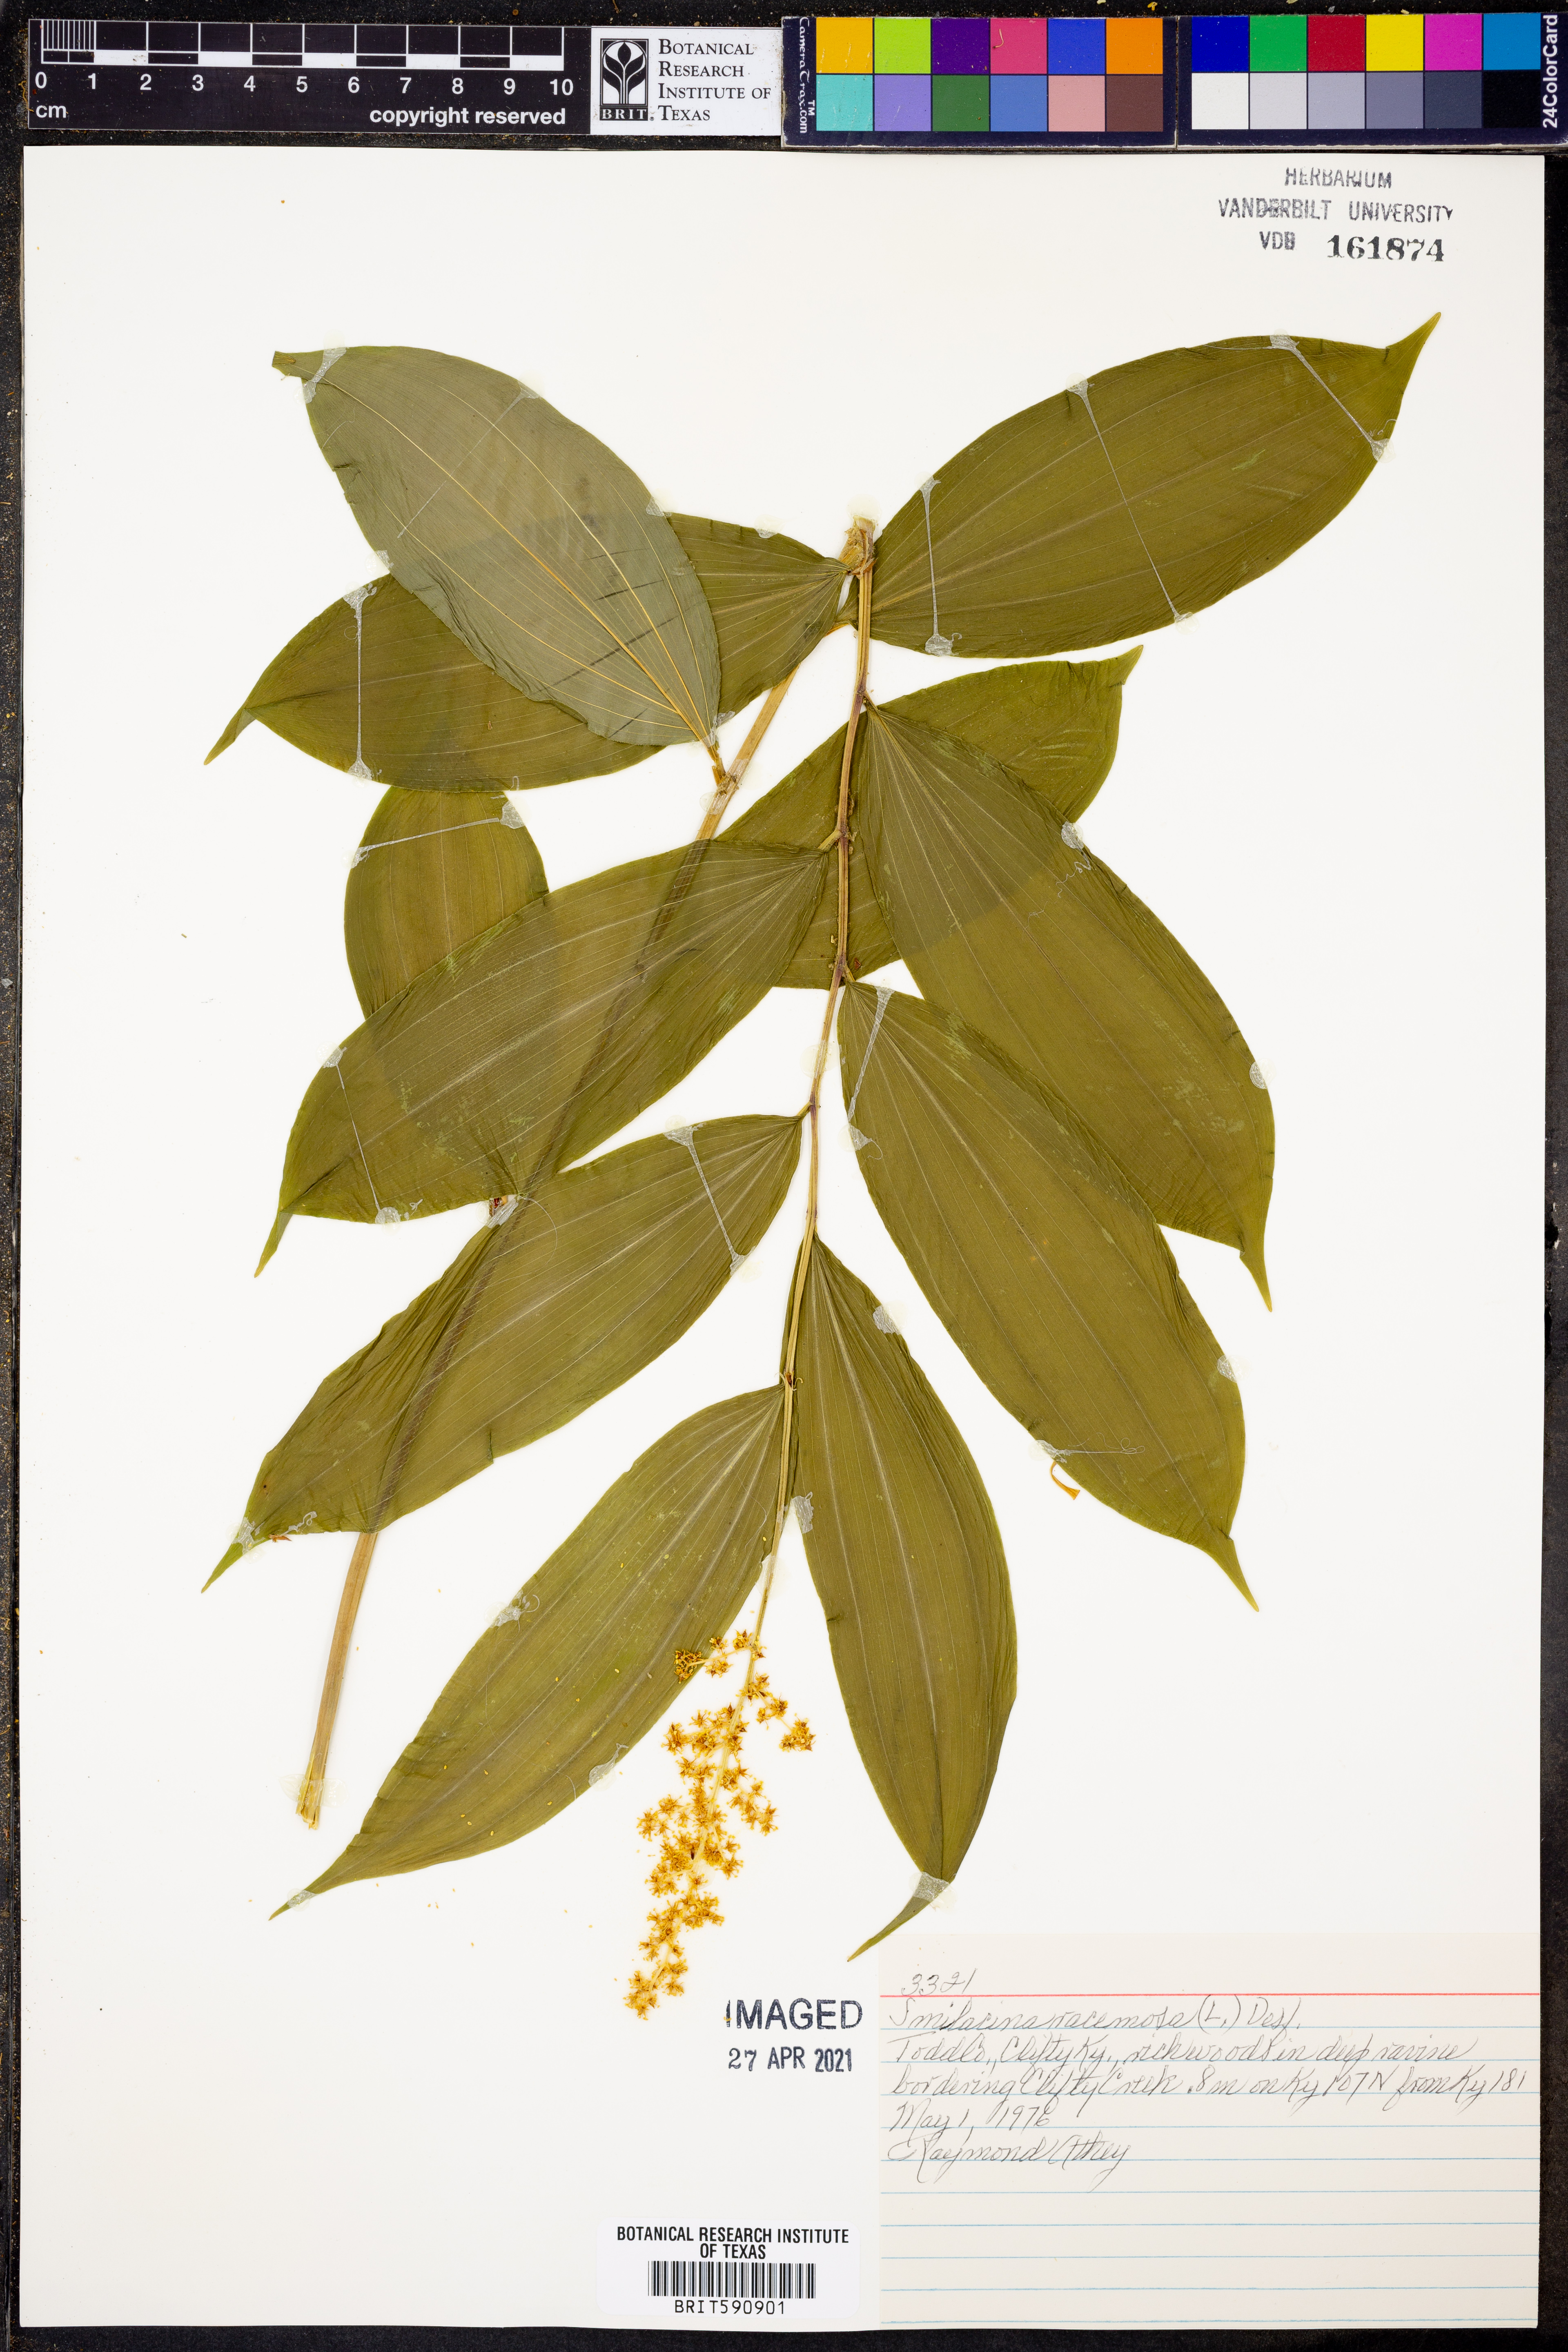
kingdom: Plantae
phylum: Tracheophyta
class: Liliopsida
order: Asparagales
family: Asparagaceae
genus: Maianthemum
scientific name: Maianthemum racemosum
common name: False spikenard
